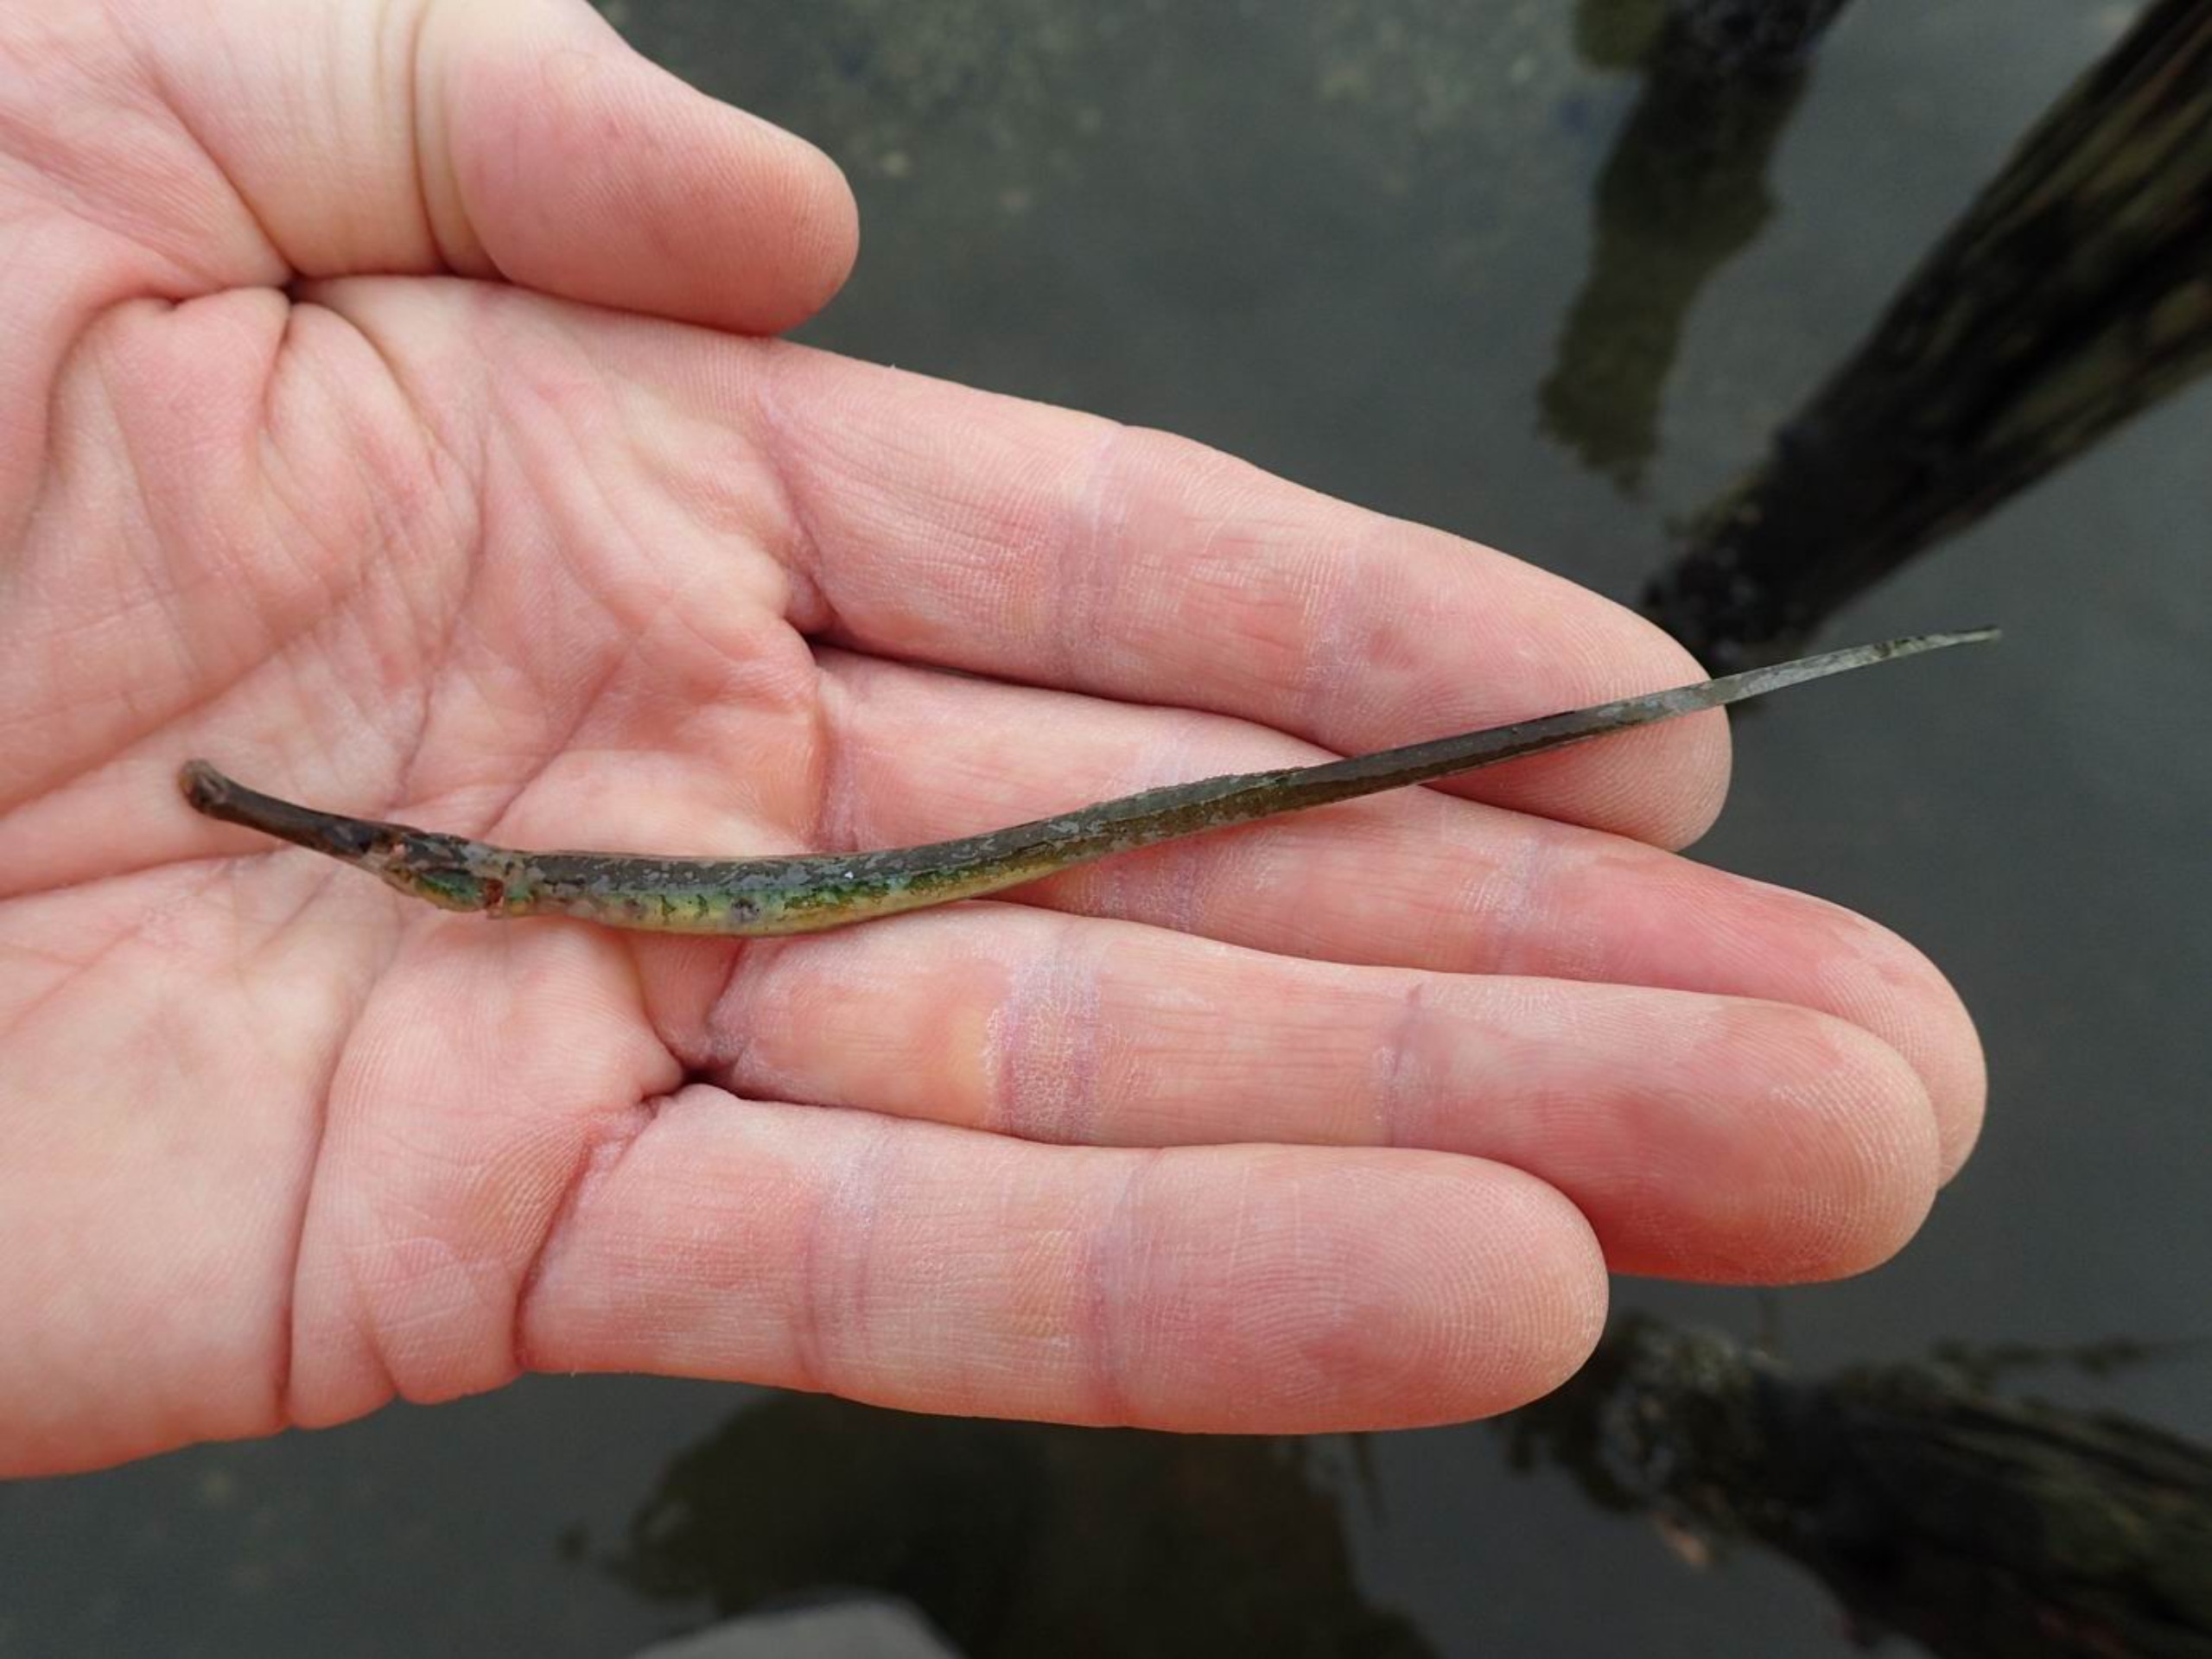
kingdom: Animalia
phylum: Chordata
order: Syngnathiformes
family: Syngnathidae
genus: Syngnathus
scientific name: Syngnathus typhle
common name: Almindelig tangnål
